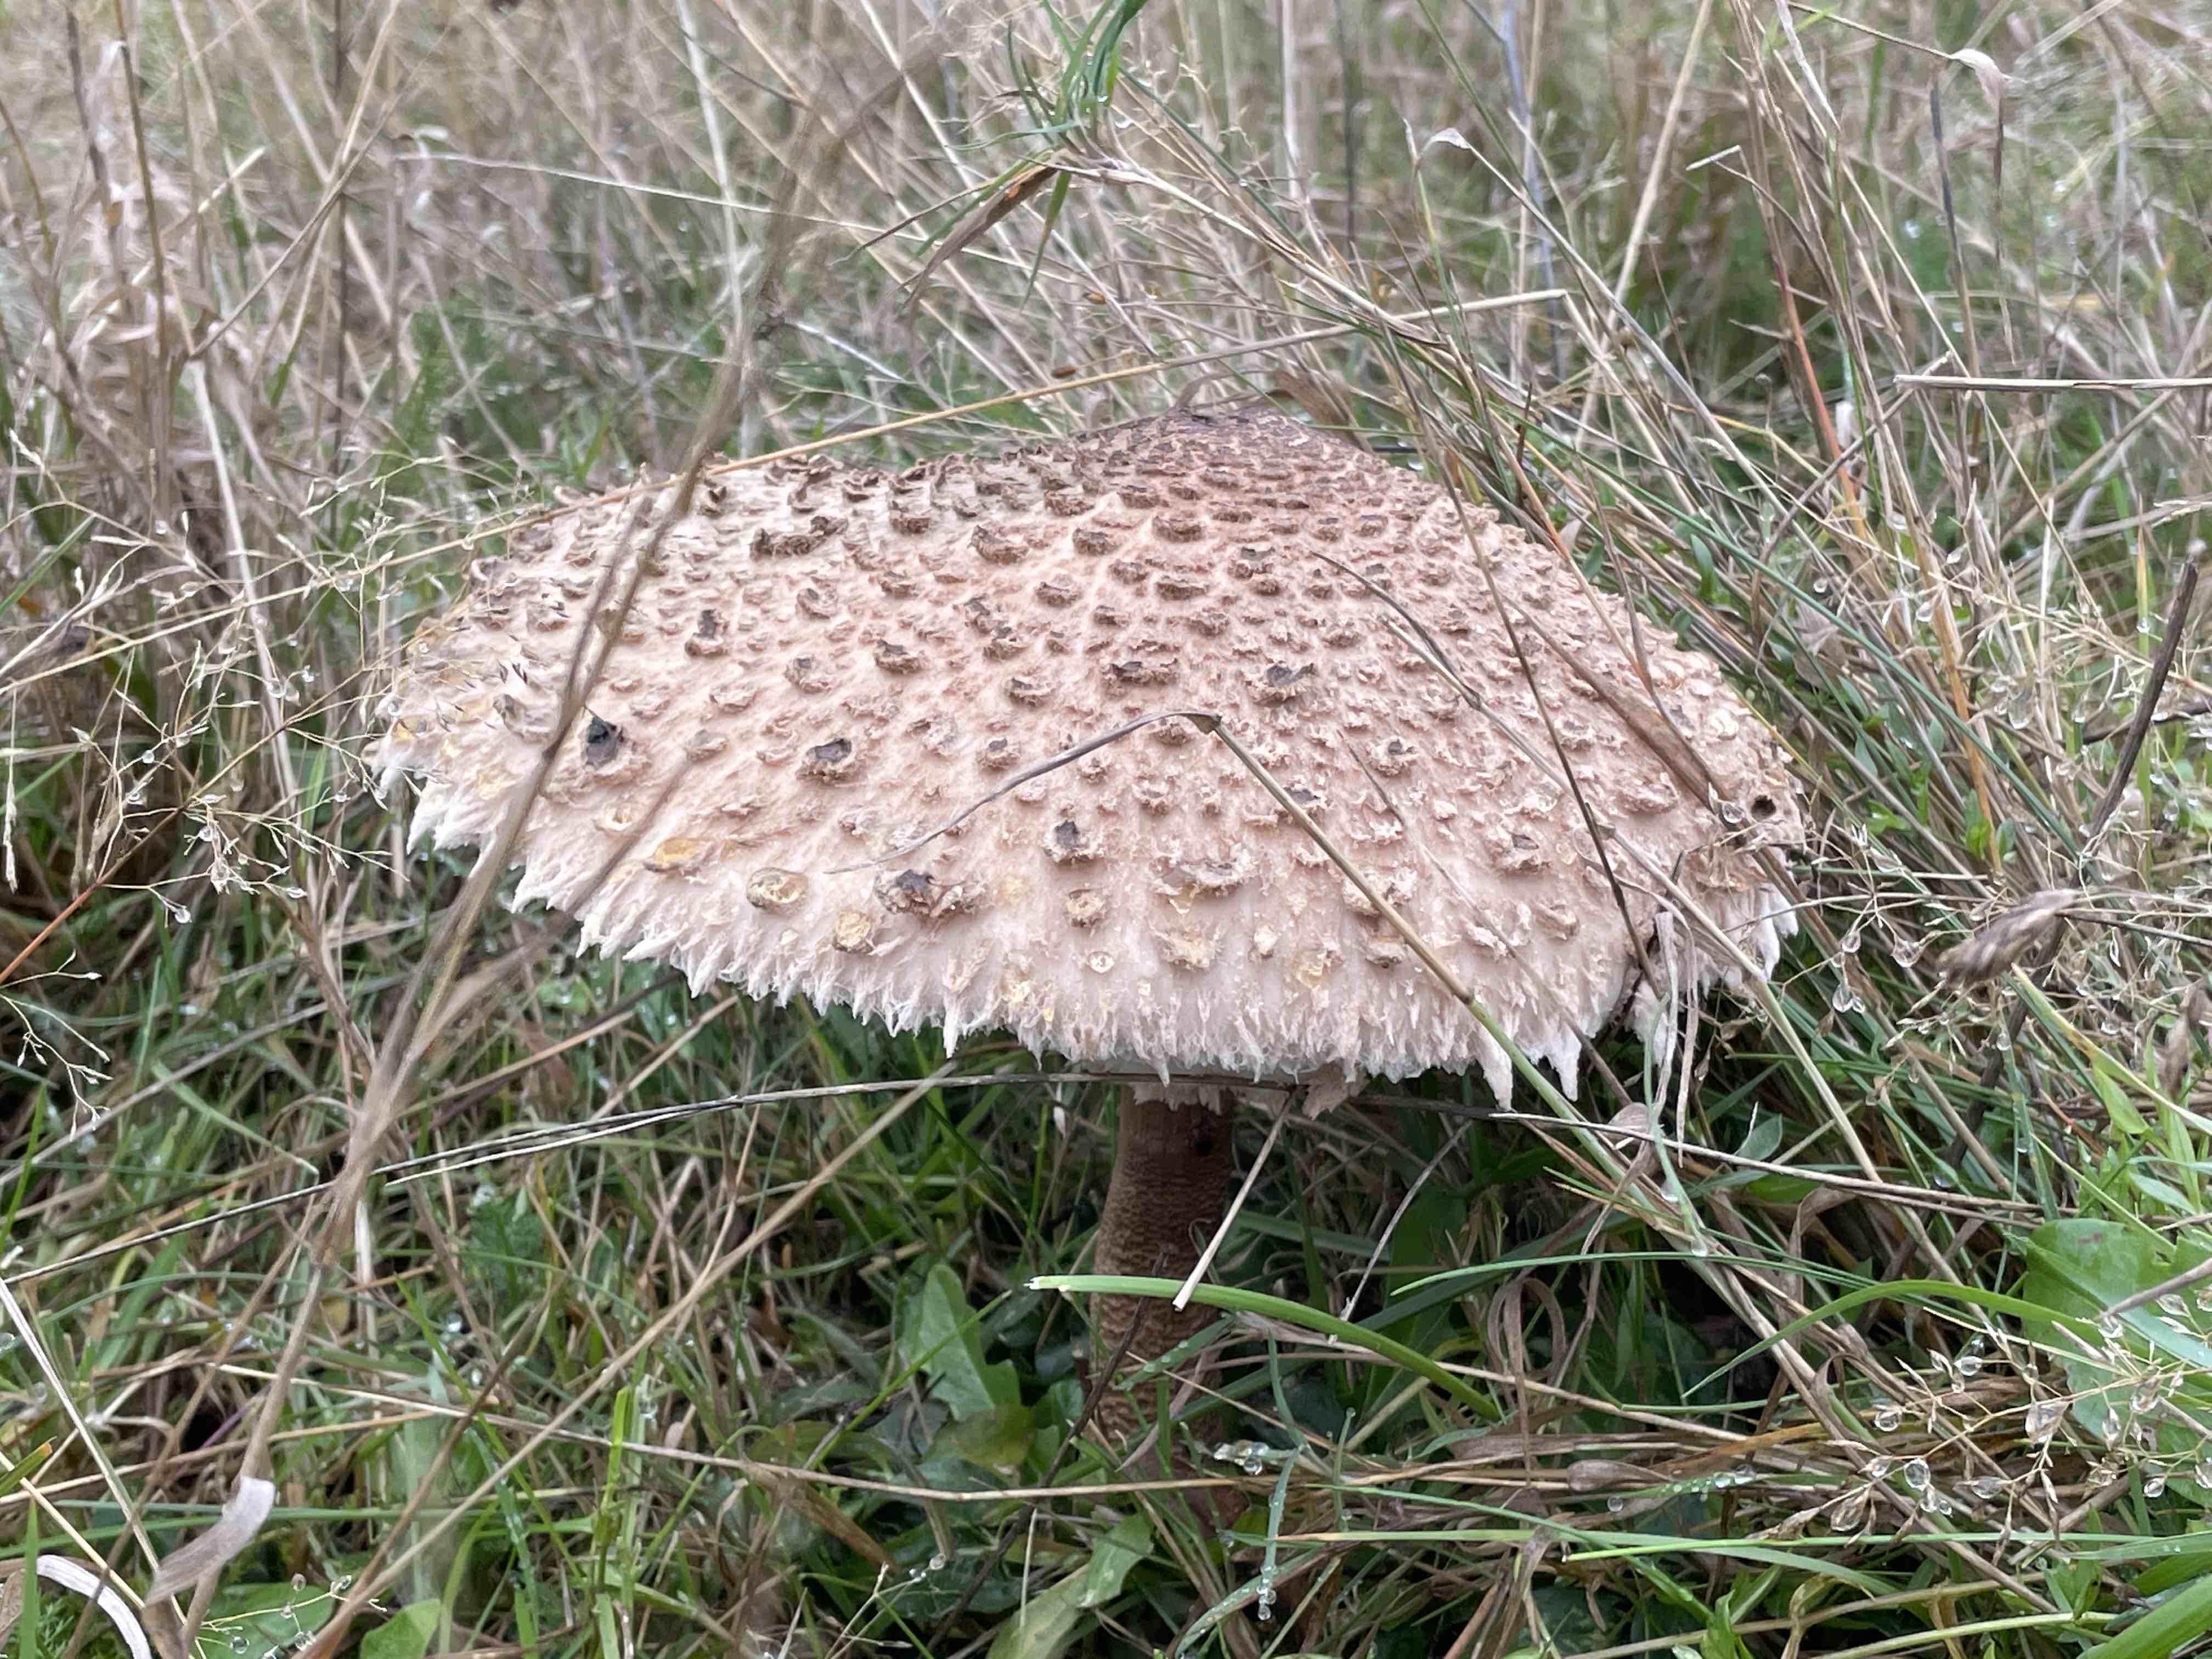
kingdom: Fungi
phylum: Basidiomycota
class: Agaricomycetes
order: Agaricales
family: Agaricaceae
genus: Macrolepiota
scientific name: Macrolepiota procera
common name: stor kæmpeparasolhat
